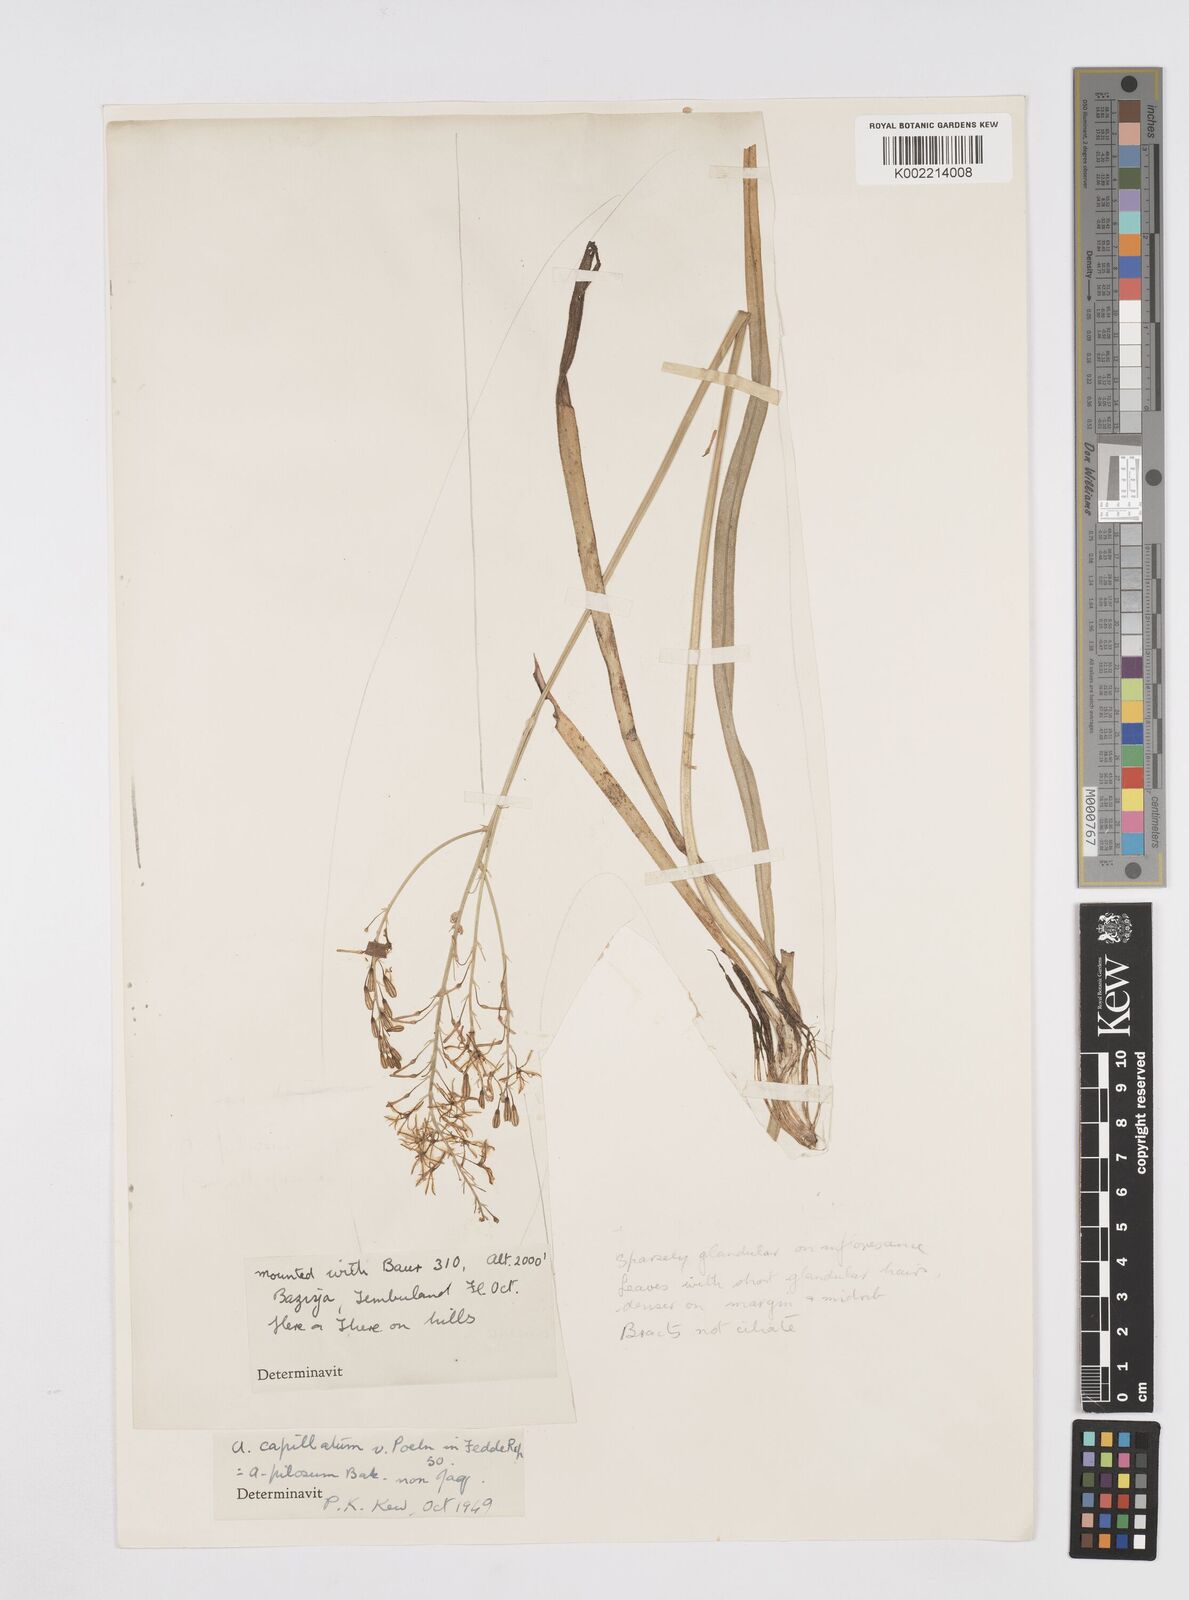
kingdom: Plantae
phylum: Tracheophyta
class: Liliopsida
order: Asparagales
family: Asphodelaceae
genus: Trachyandra
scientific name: Trachyandra capillata
